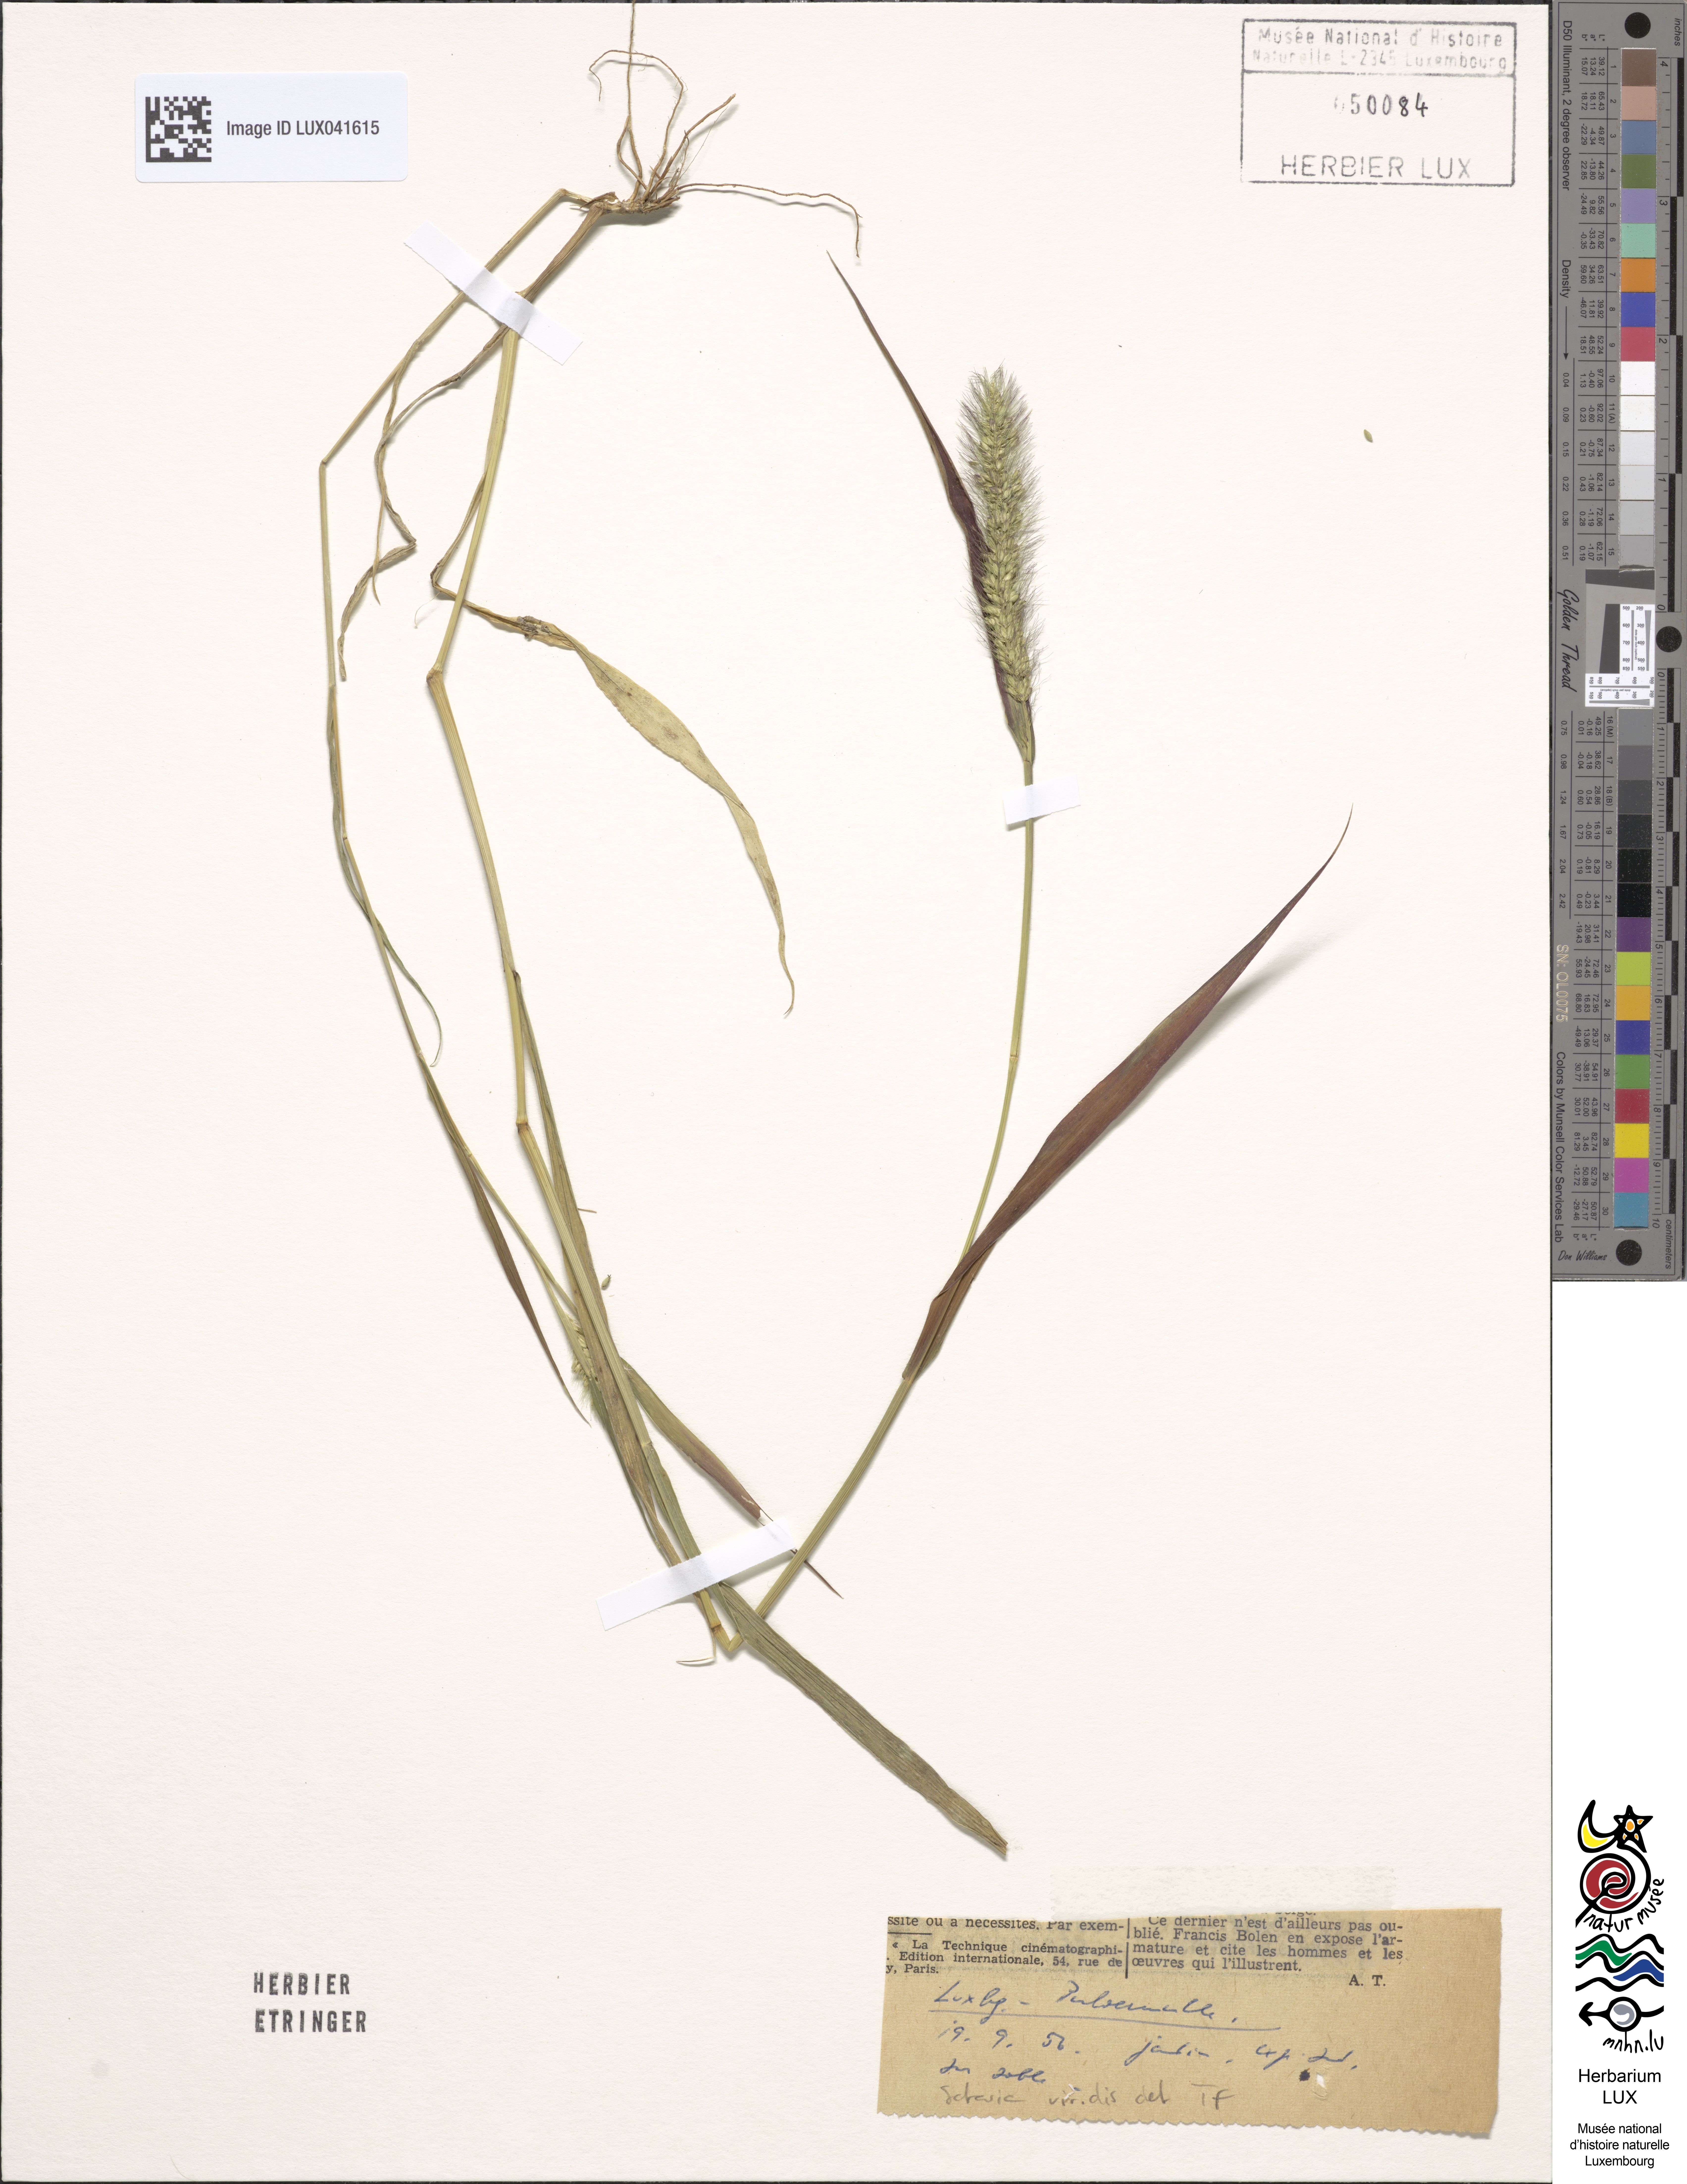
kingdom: Plantae
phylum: Tracheophyta
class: Liliopsida
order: Poales
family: Poaceae
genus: Setaria
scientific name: Setaria viridis
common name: Green bristlegrass
